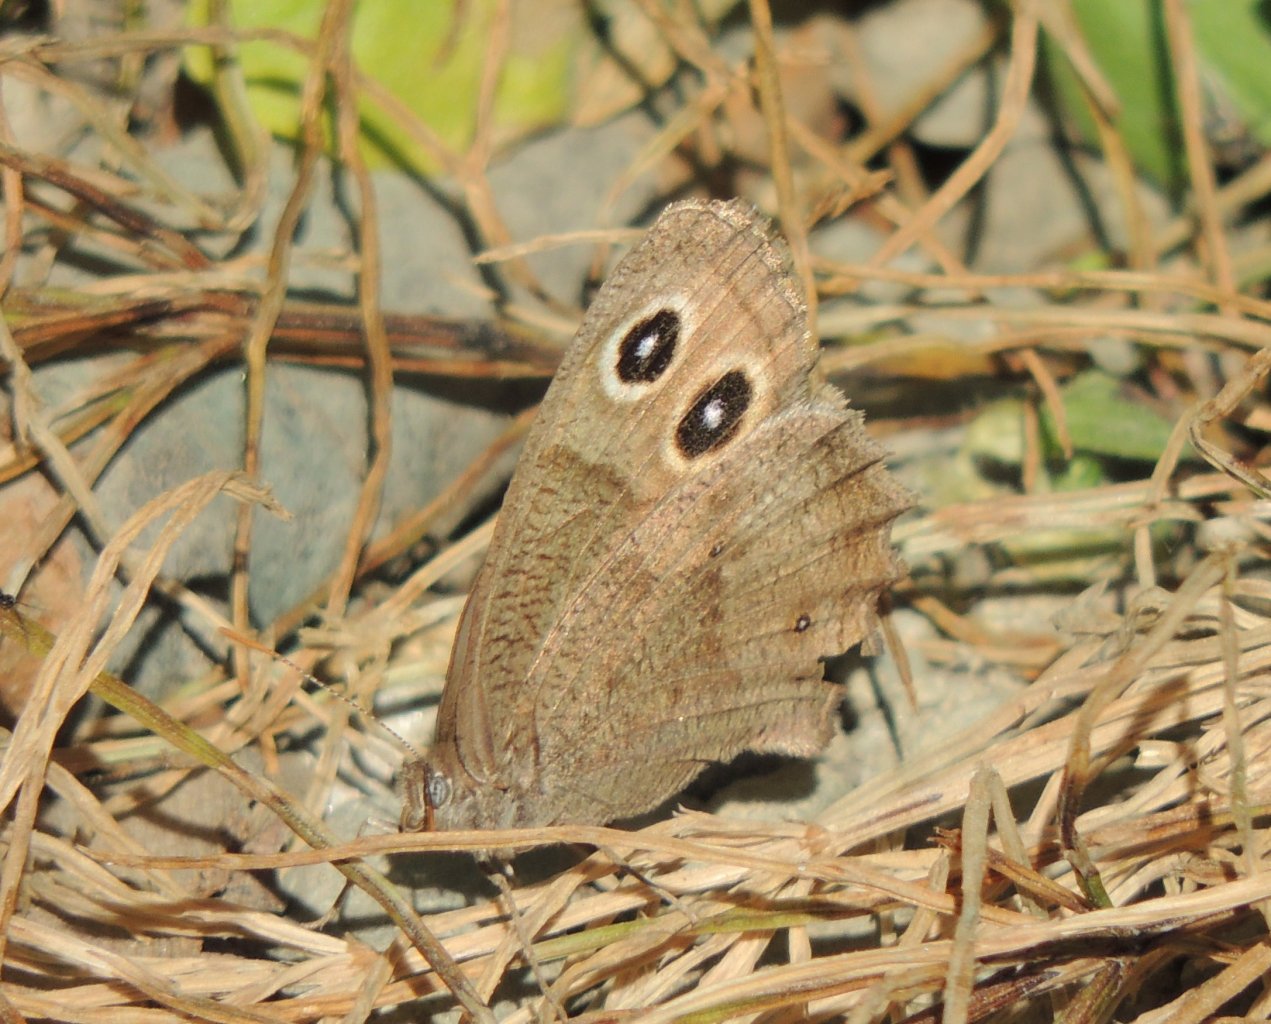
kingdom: Animalia
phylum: Arthropoda
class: Insecta
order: Lepidoptera
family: Nymphalidae
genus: Cercyonis
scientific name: Cercyonis pegala
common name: Common Wood-Nymph
